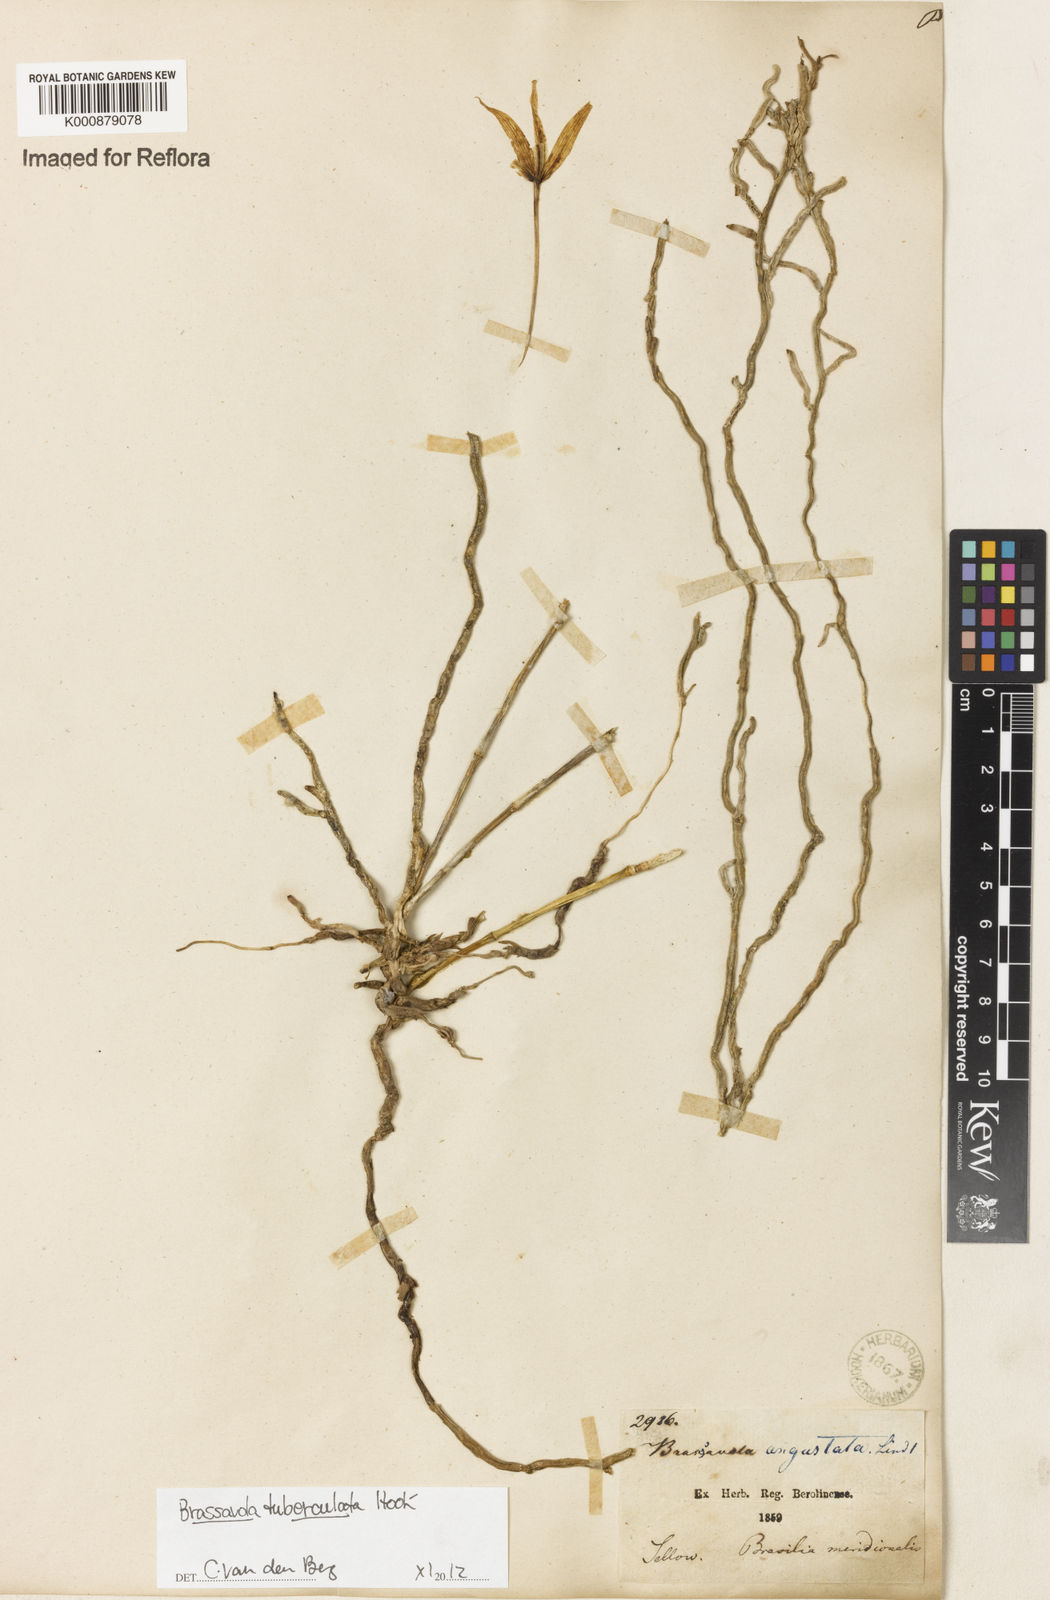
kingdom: Plantae
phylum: Tracheophyta
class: Liliopsida
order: Asparagales
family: Orchidaceae
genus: Brassavola
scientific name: Brassavola tuberculata
